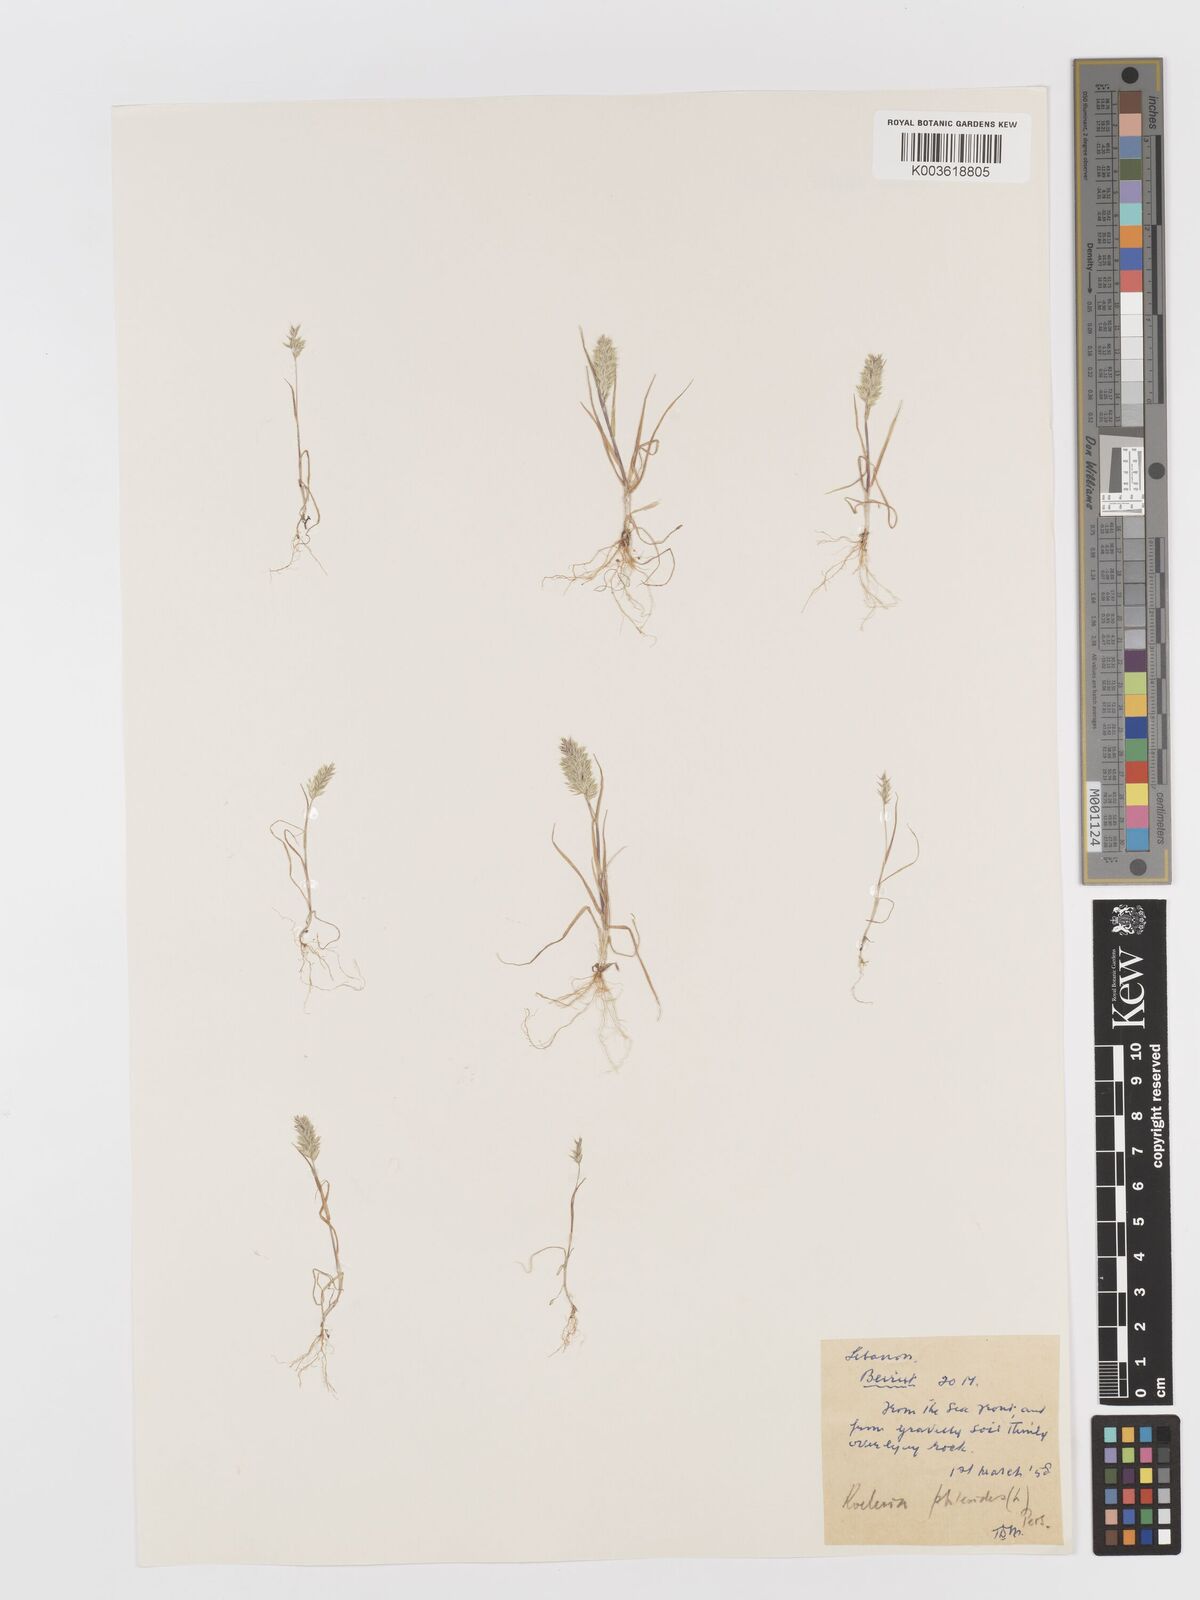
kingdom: Plantae
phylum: Tracheophyta
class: Liliopsida
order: Poales
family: Poaceae
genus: Rostraria
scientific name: Rostraria cristata
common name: Mediterranean hair-grass
